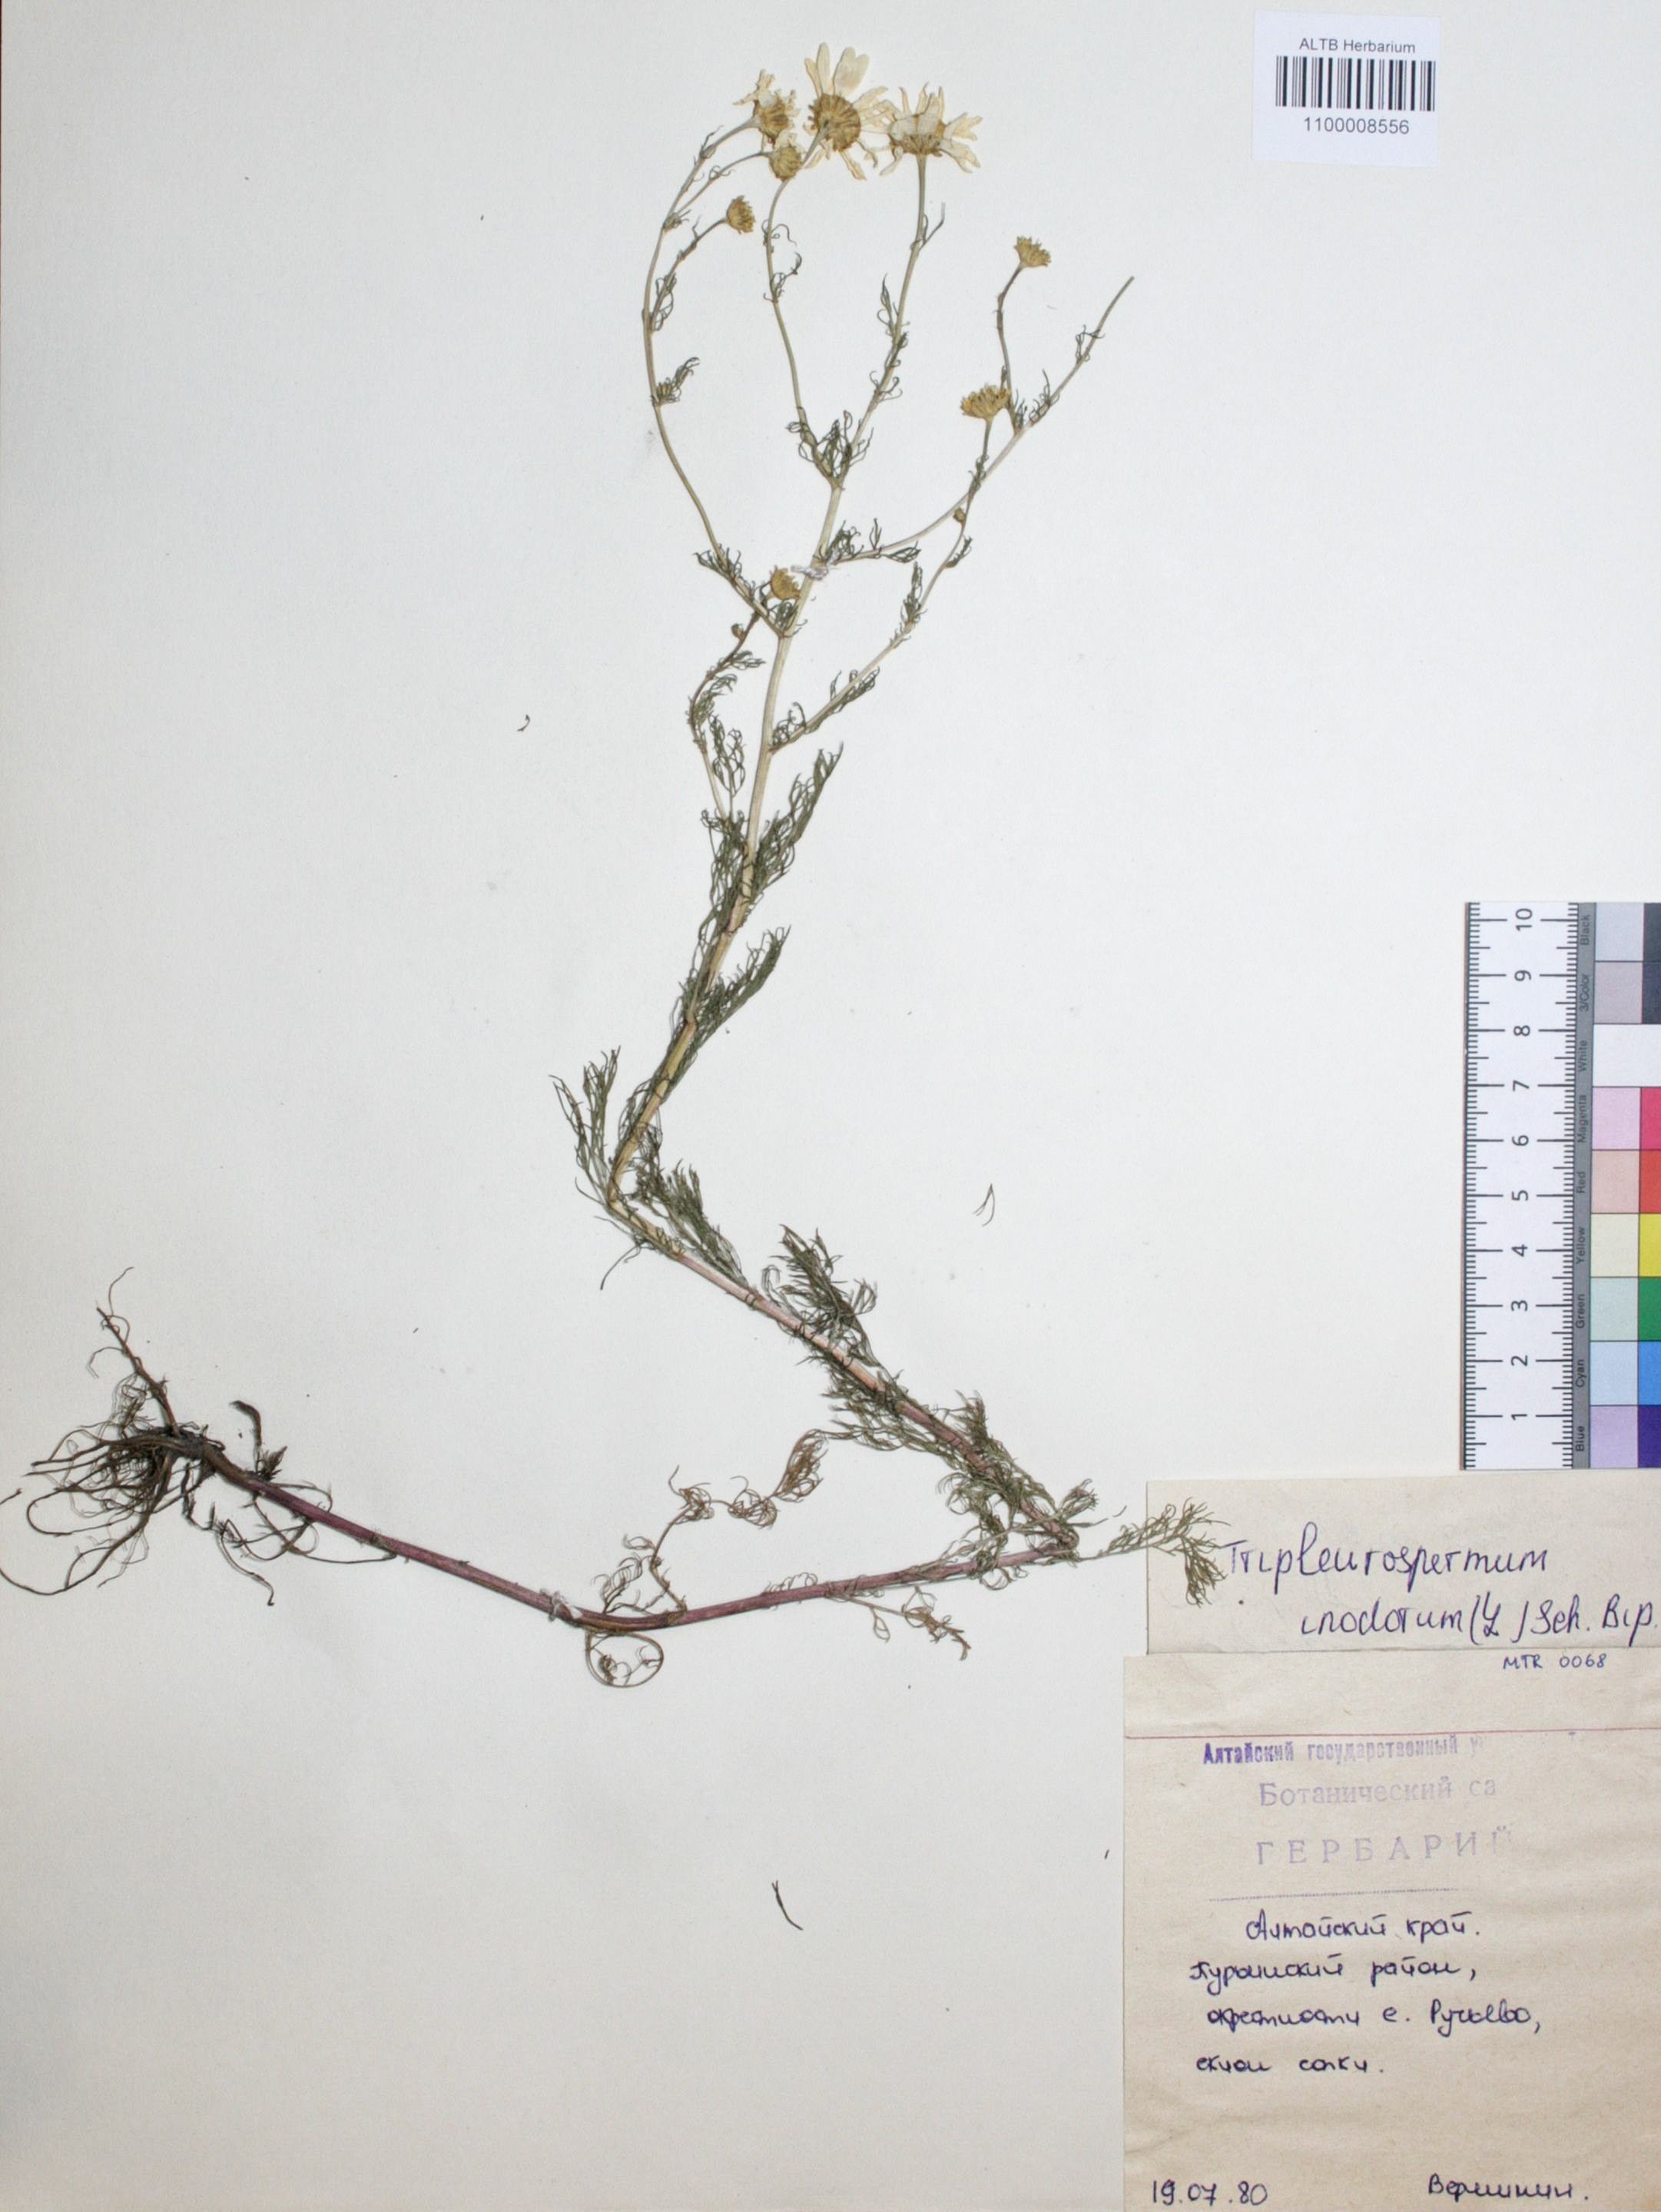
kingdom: Plantae
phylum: Tracheophyta
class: Magnoliopsida
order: Asterales
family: Asteraceae
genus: Tripleurospermum
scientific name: Tripleurospermum inodorum
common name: Scentless mayweed
